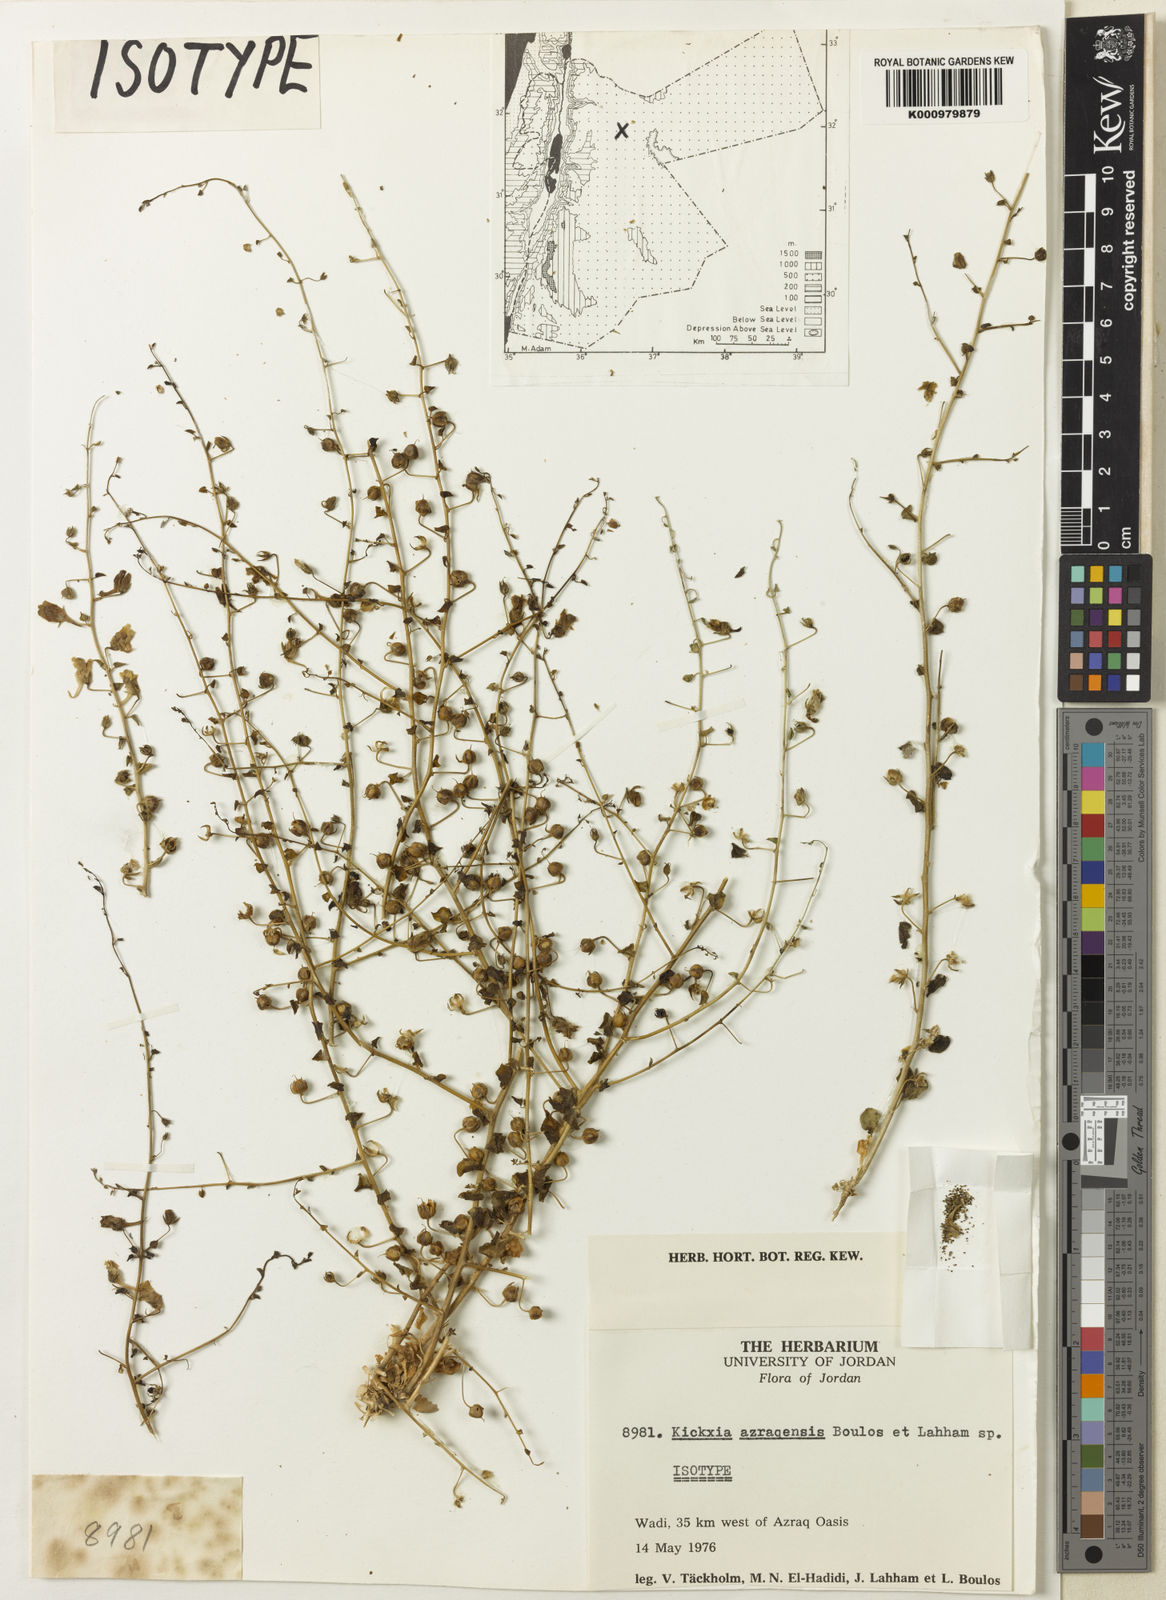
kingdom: Plantae
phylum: Tracheophyta
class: Magnoliopsida
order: Lamiales
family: Plantaginaceae
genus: Kickxia
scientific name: Kickxia
